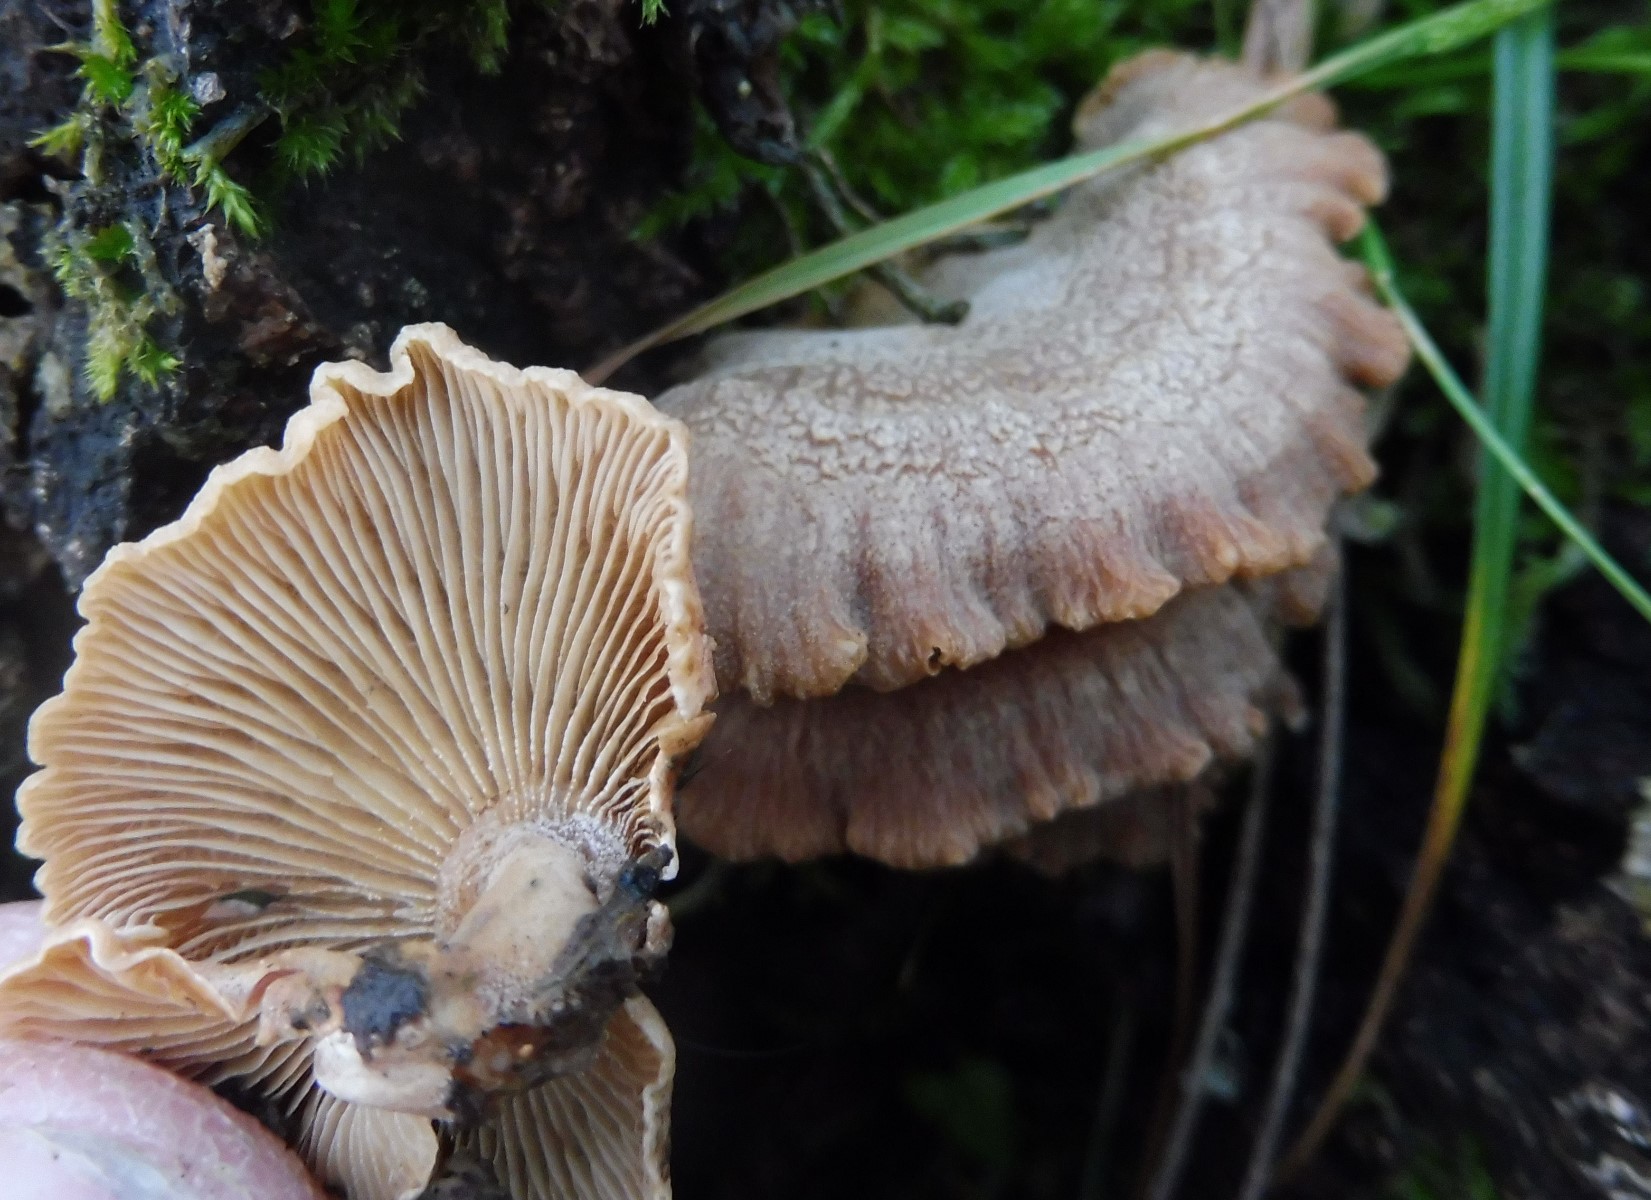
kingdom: Fungi
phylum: Basidiomycota
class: Agaricomycetes
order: Agaricales
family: Mycenaceae
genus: Panellus
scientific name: Panellus stipticus
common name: kliddet epaulethat
